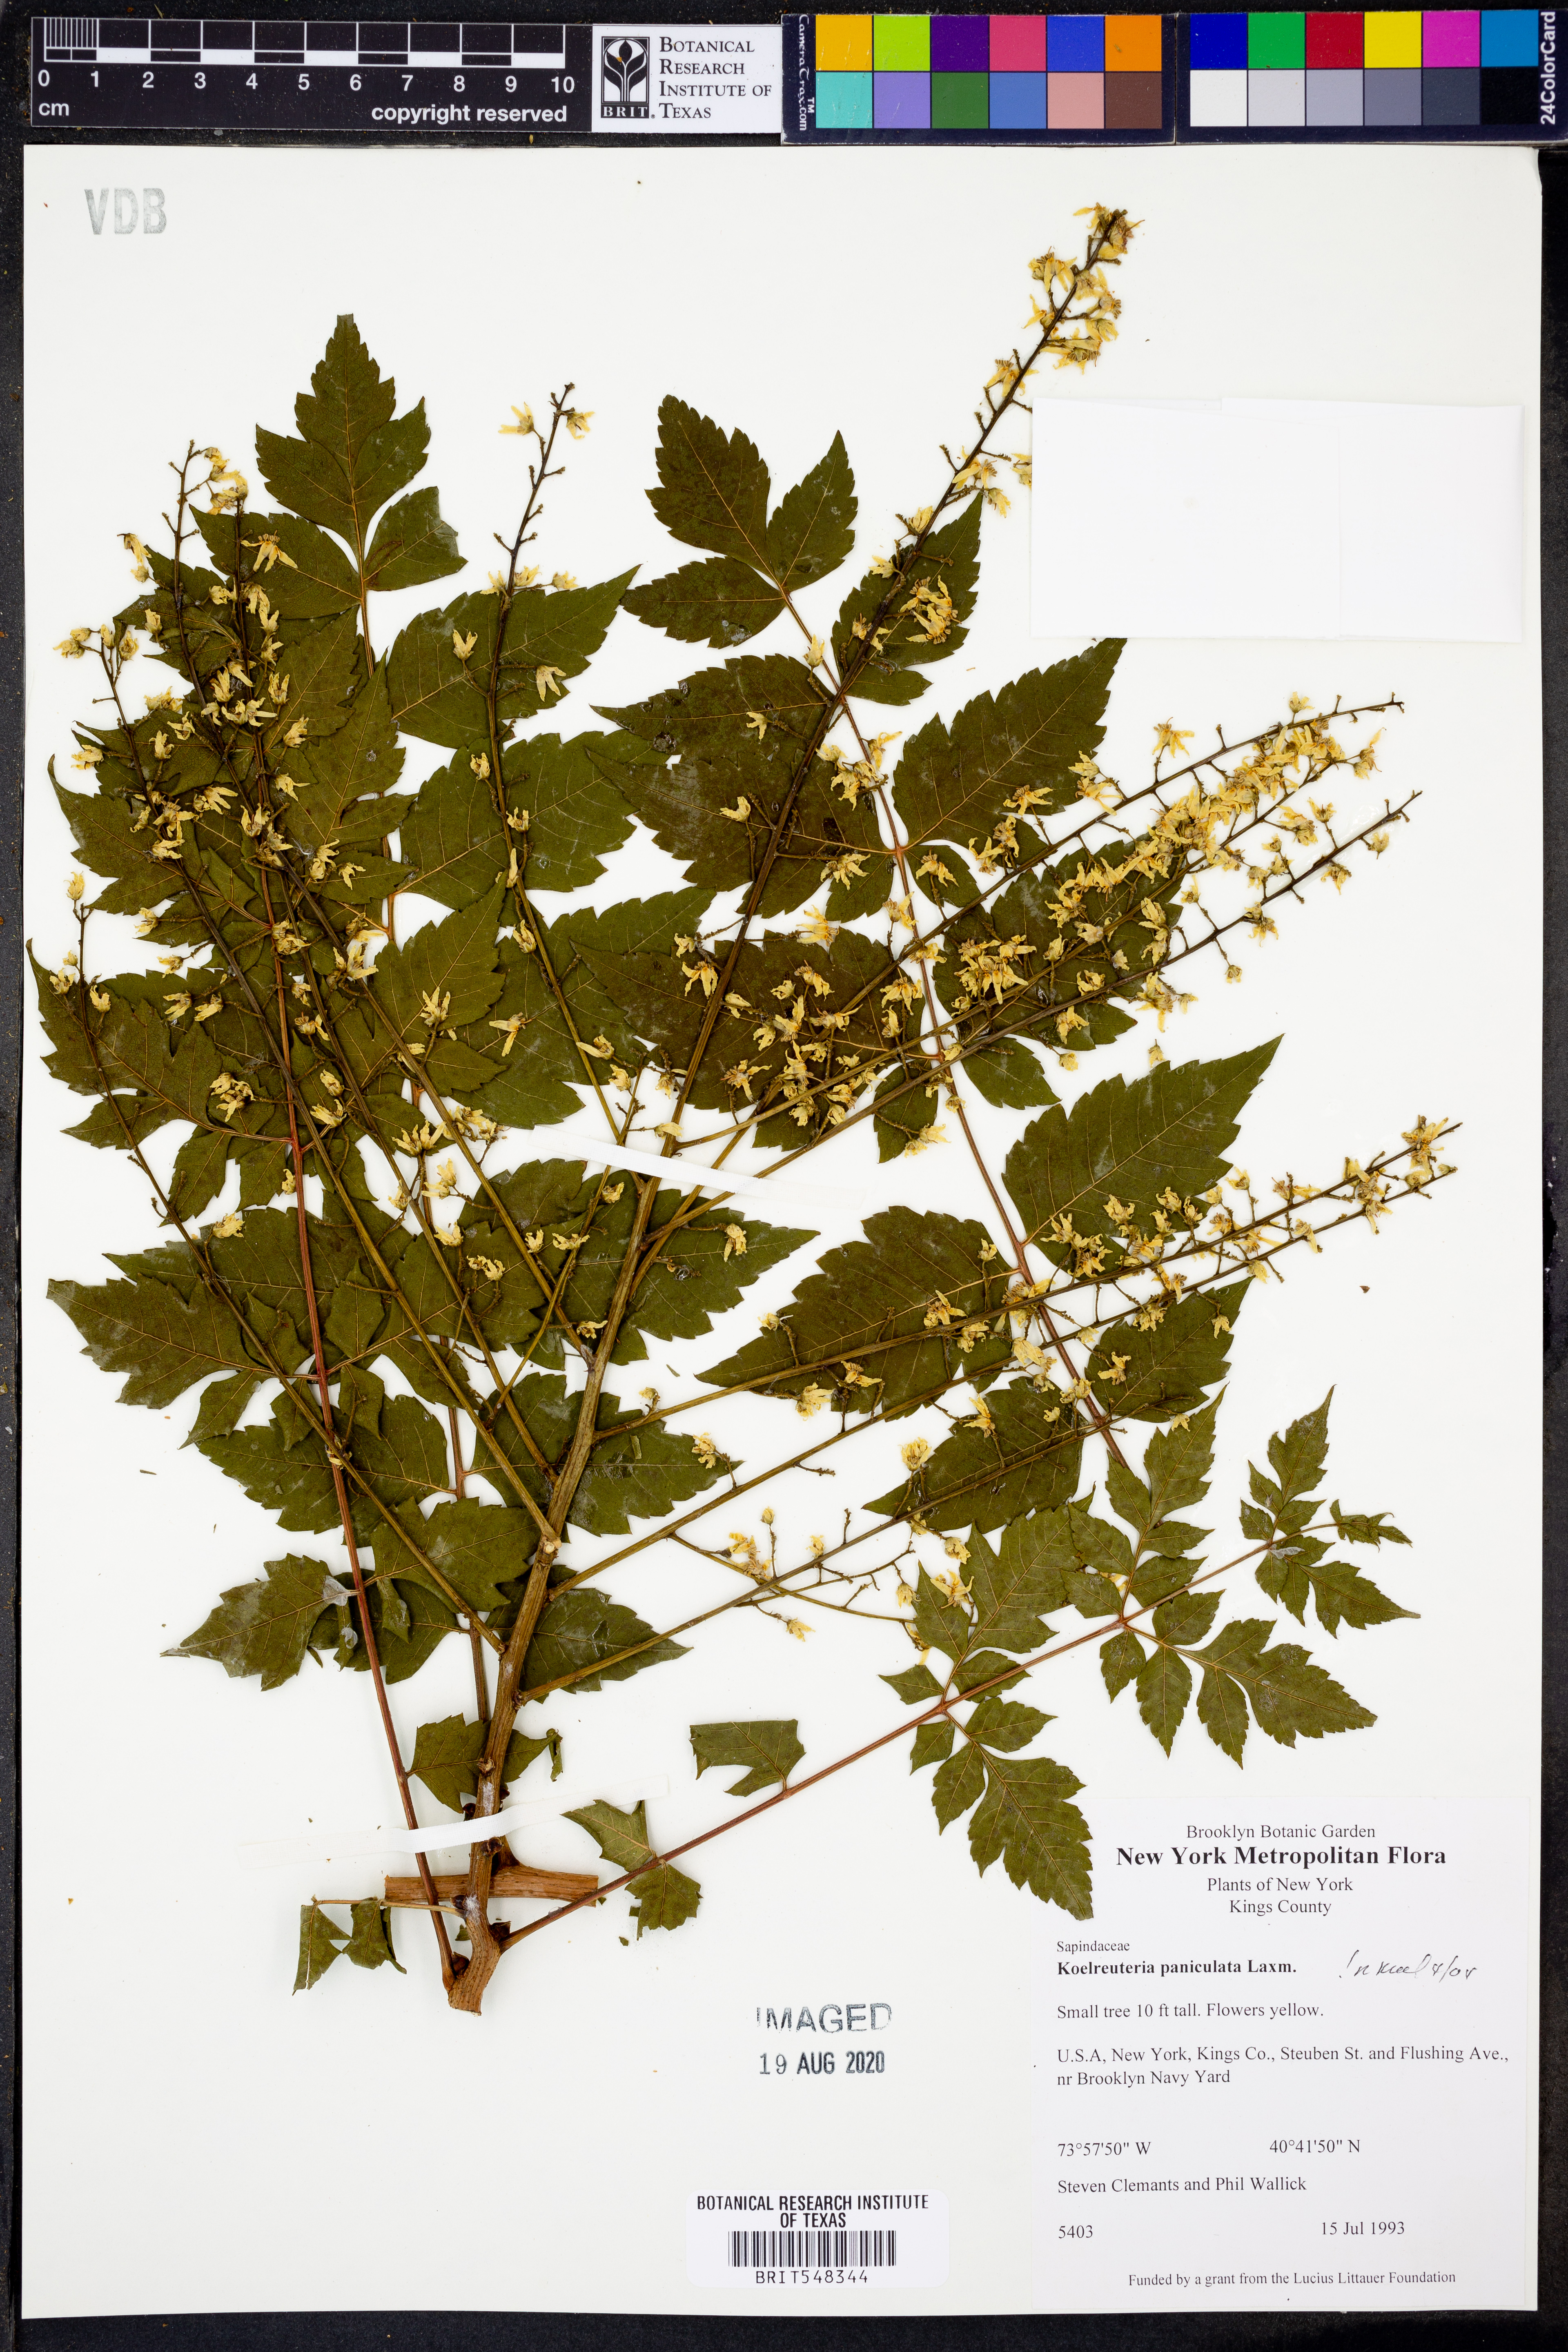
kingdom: Plantae
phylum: Tracheophyta
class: Magnoliopsida
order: Sapindales
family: Sapindaceae
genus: Koelreuteria
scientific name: Koelreuteria paniculata
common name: Pride-of-india
